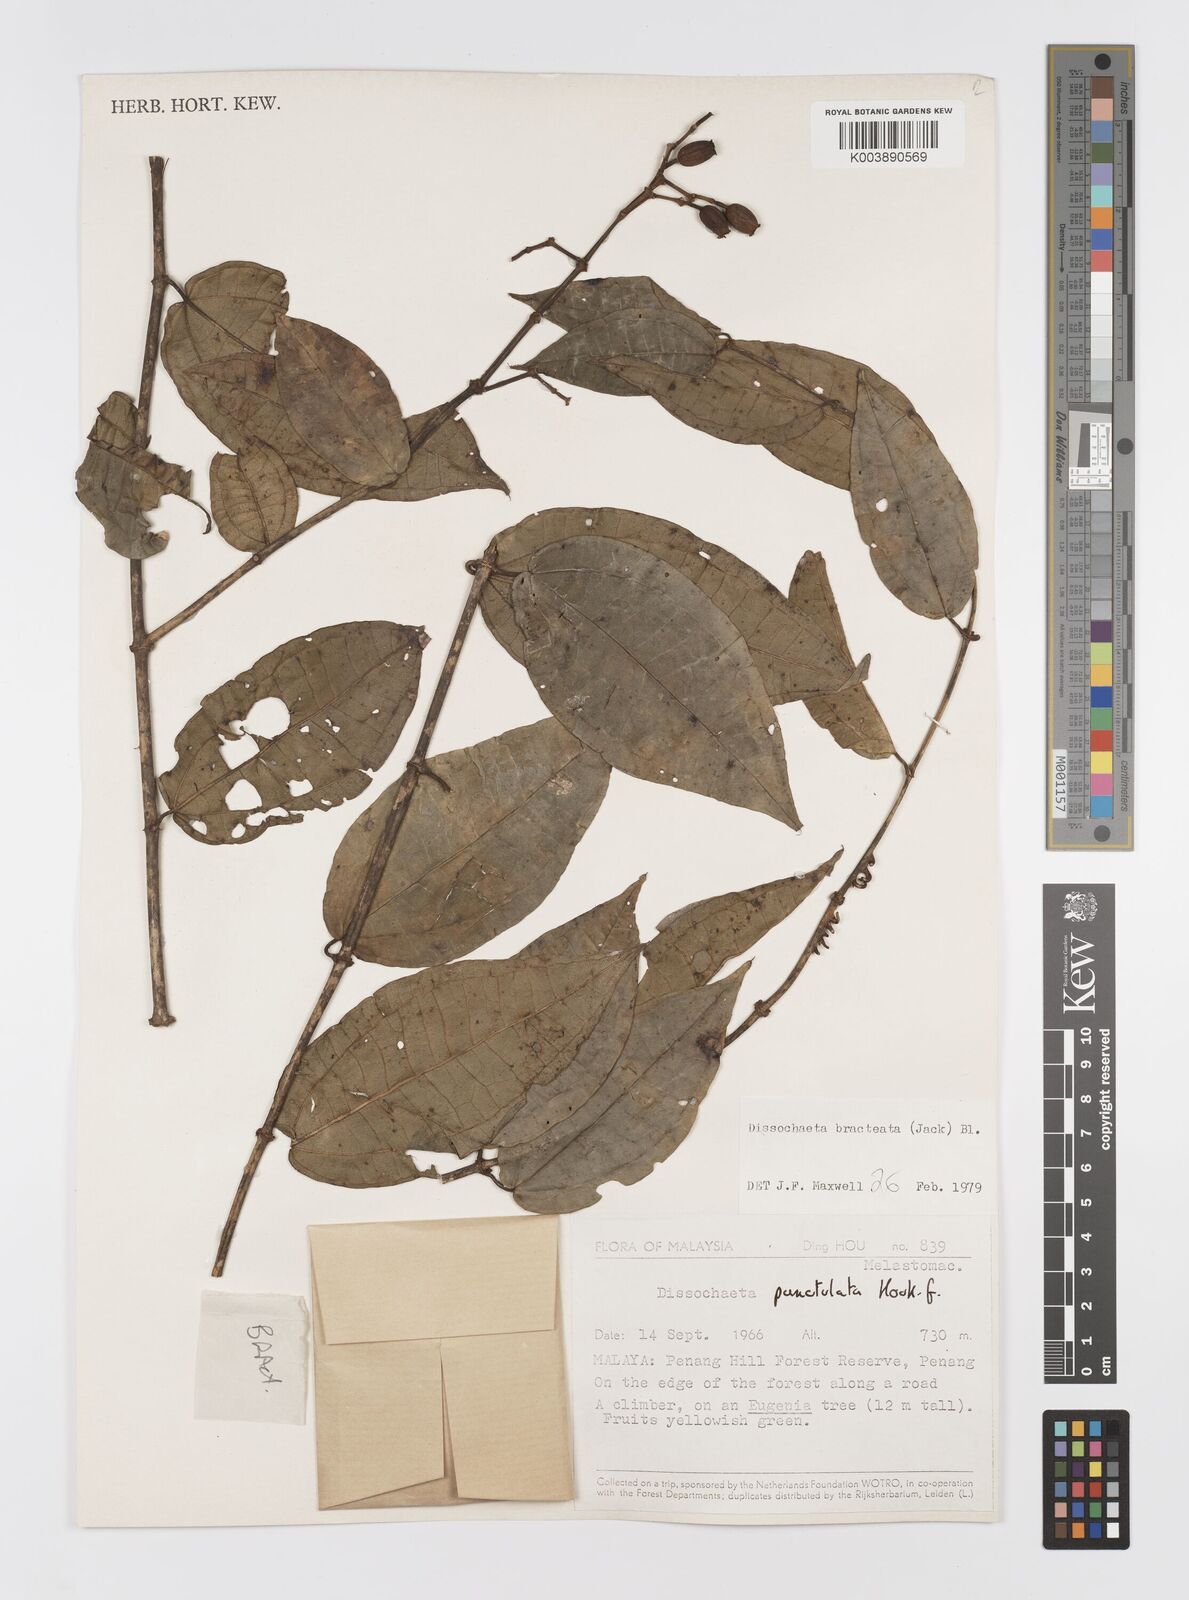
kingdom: Plantae
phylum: Tracheophyta
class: Magnoliopsida
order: Myrtales
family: Melastomataceae
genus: Dissochaeta
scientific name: Dissochaeta bracteata
